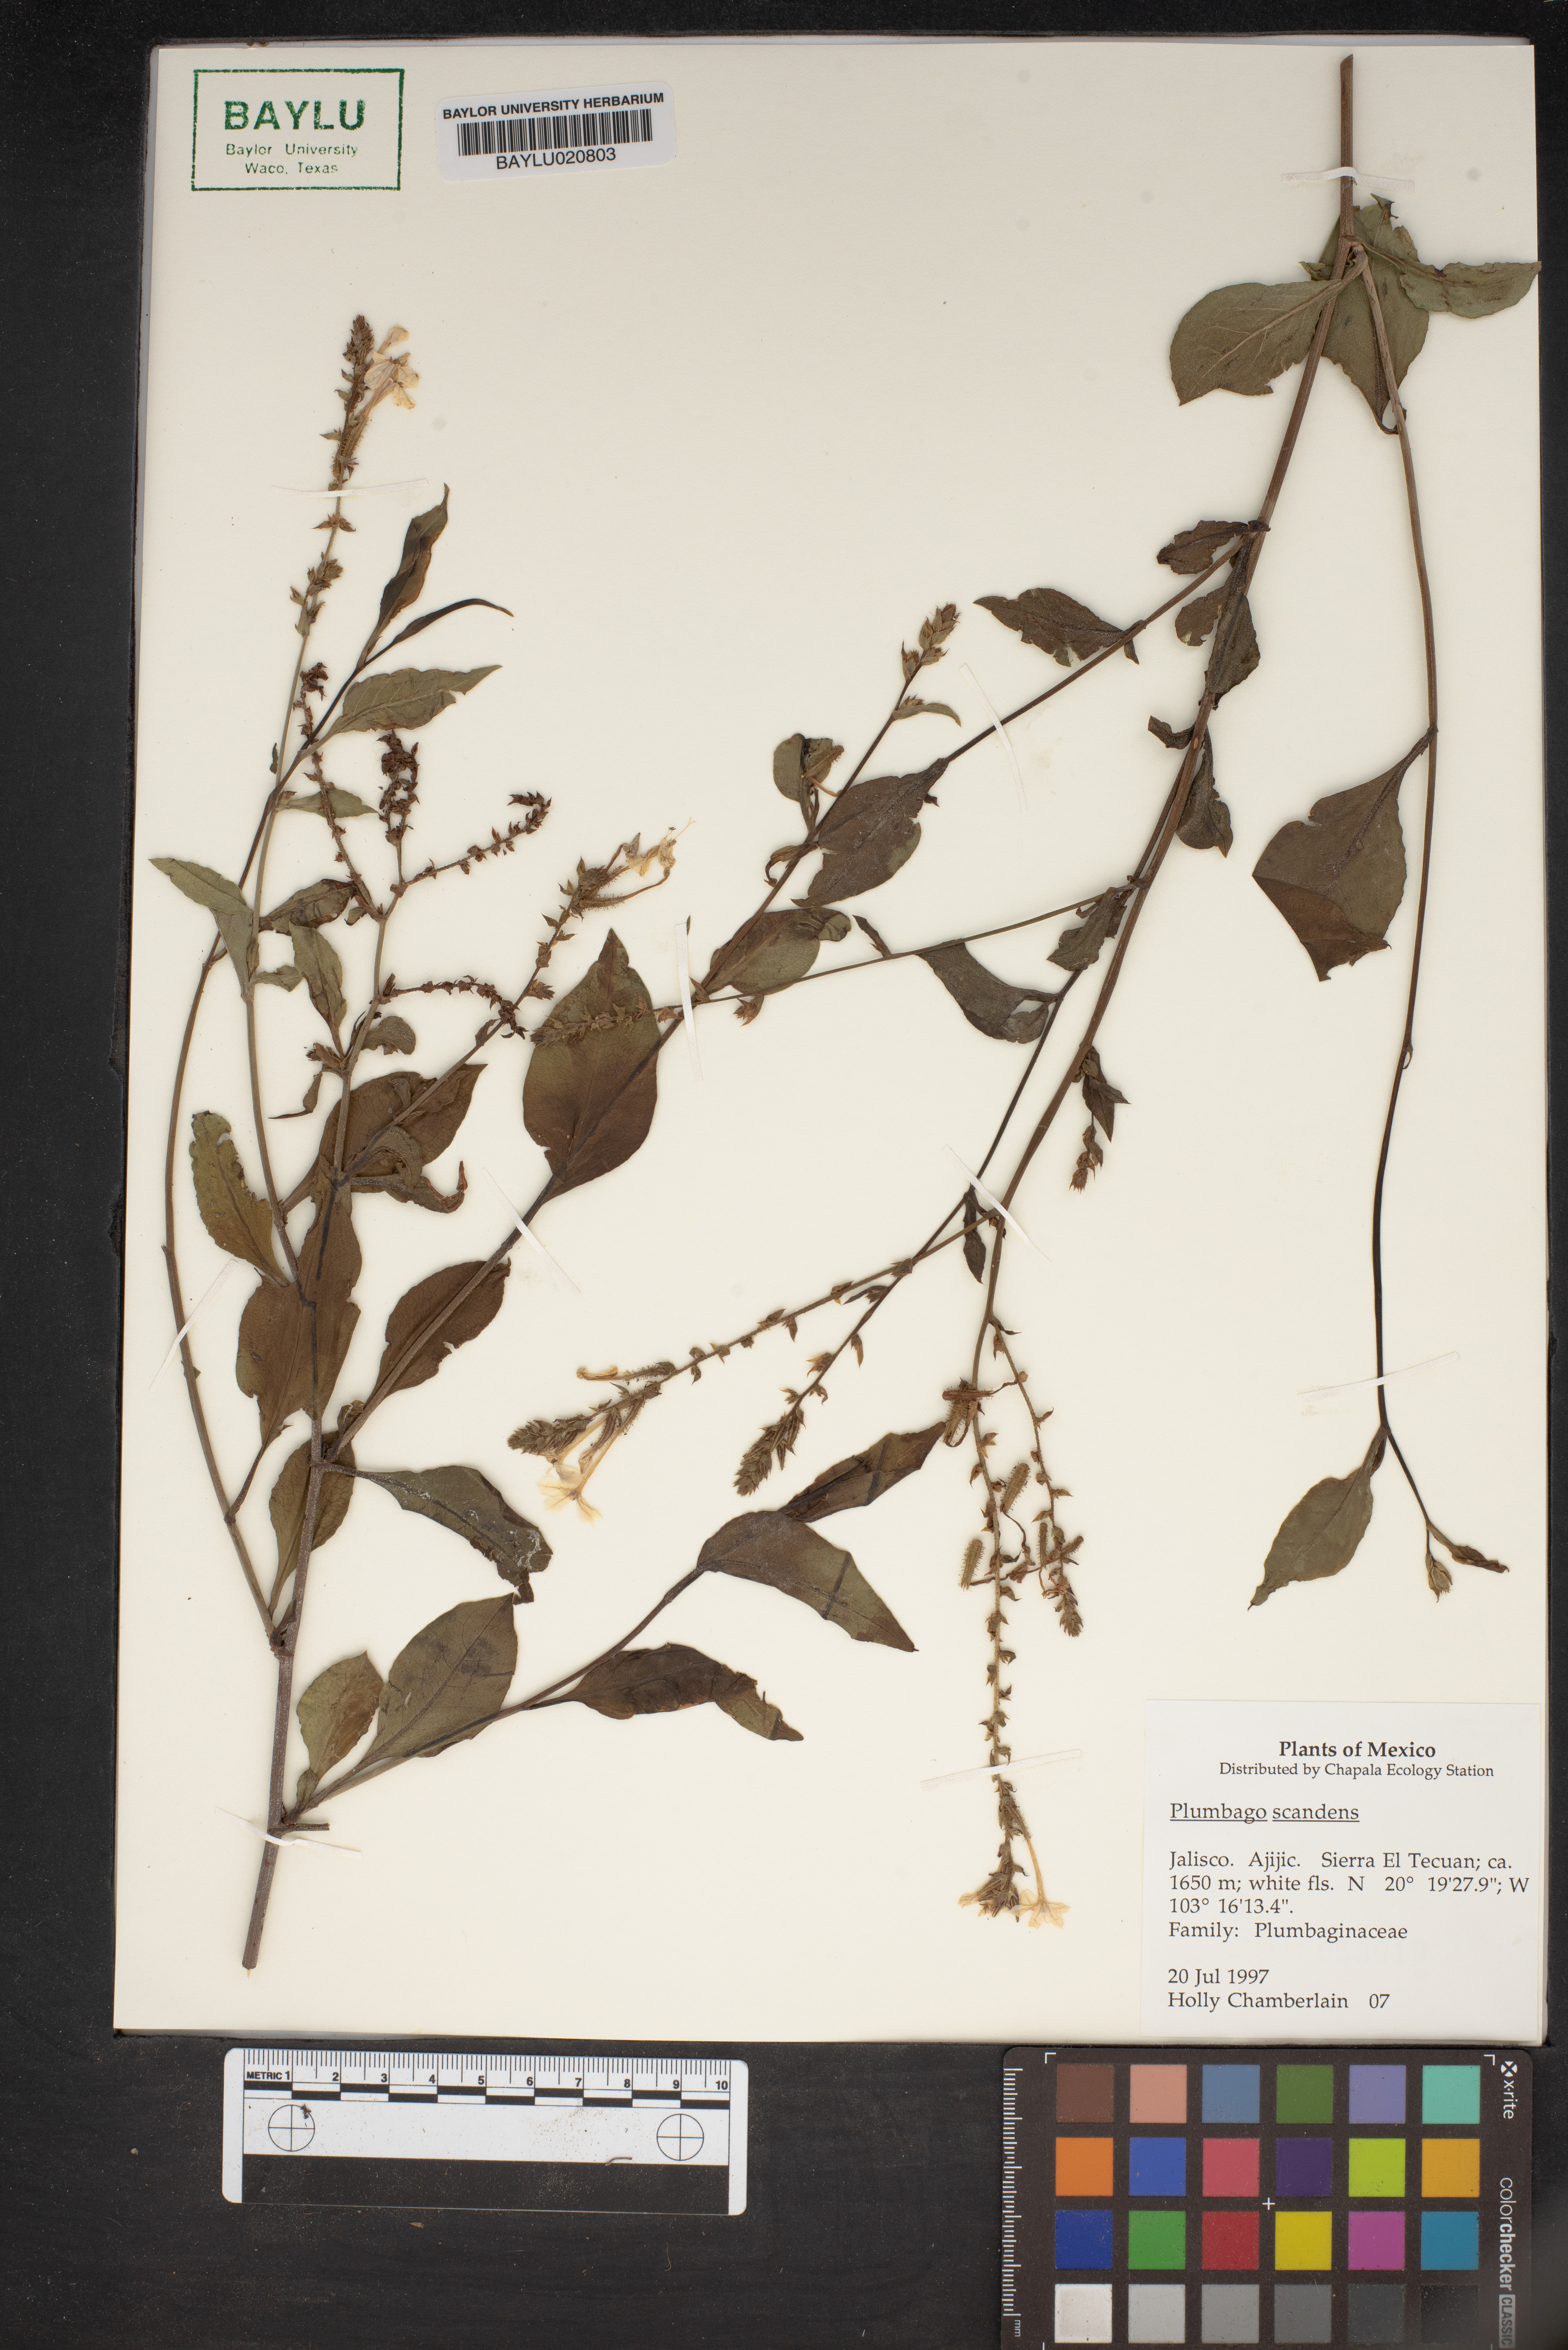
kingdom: Plantae
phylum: Tracheophyta
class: Magnoliopsida
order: Caryophyllales
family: Plumbaginaceae
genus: Plumbago
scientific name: Plumbago zeylanica
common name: Doctorbush
